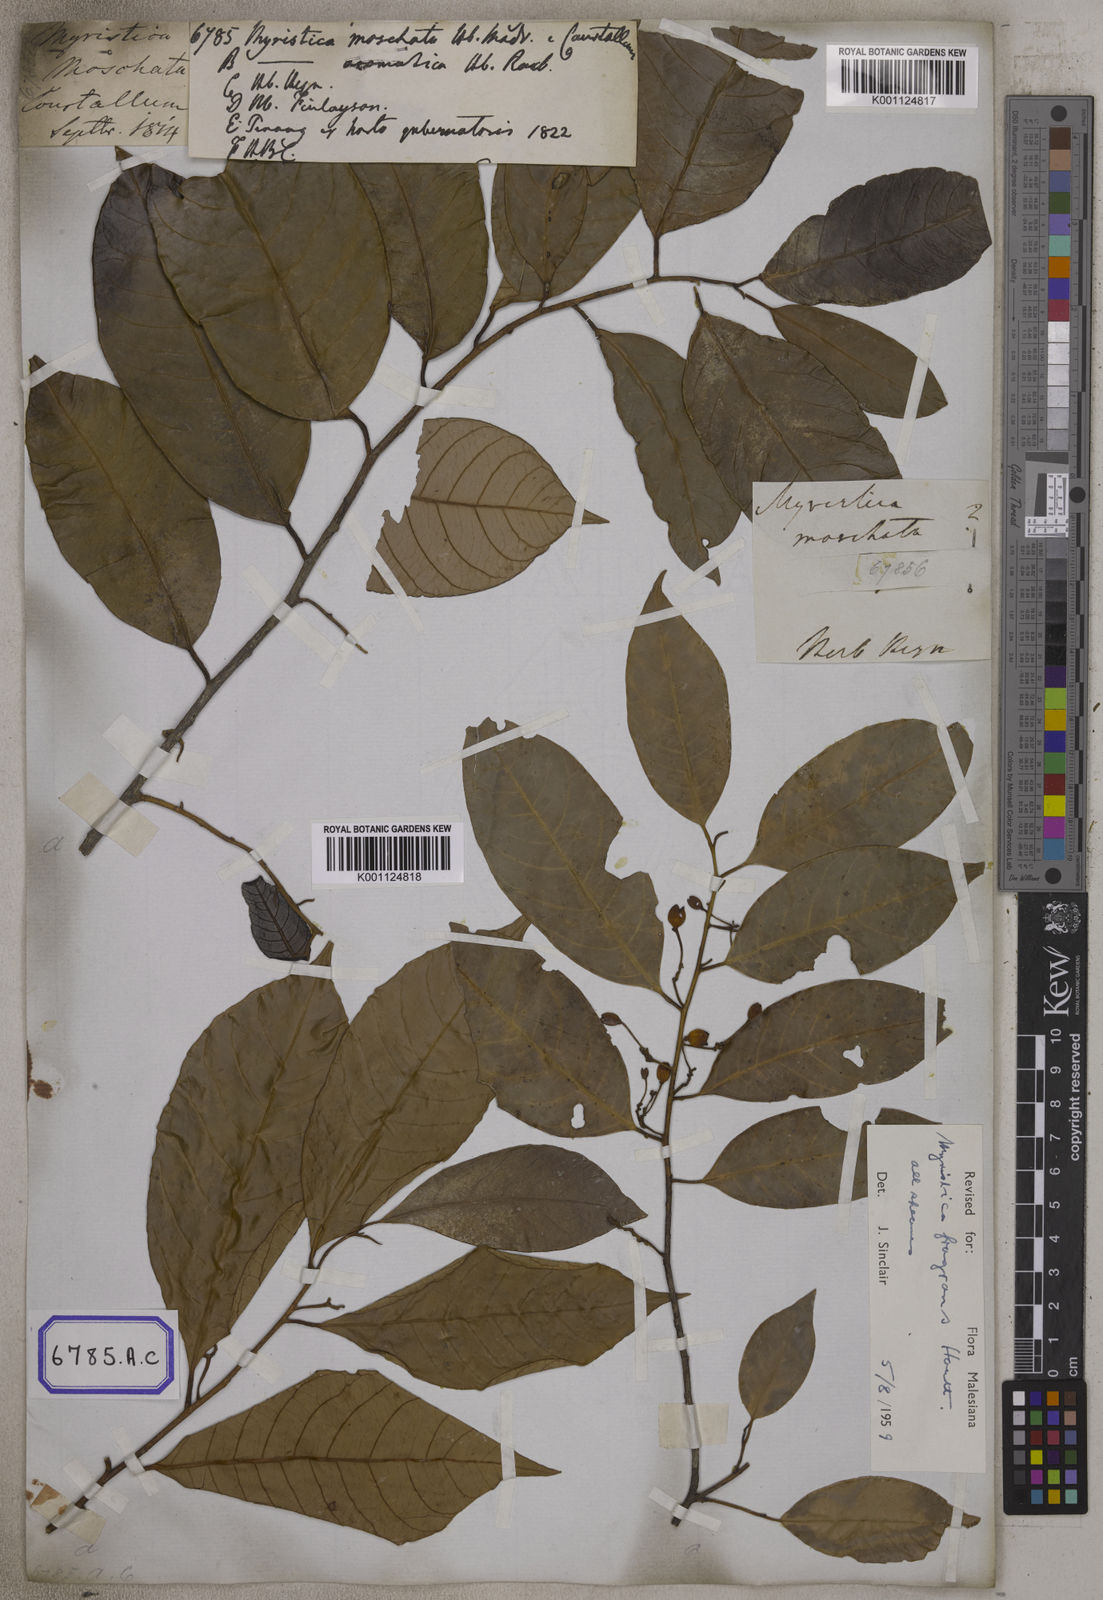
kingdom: Plantae
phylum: Tracheophyta
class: Magnoliopsida
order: Magnoliales
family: Myristicaceae
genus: Myristica
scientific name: Myristica fragrans
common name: Nutmeg
